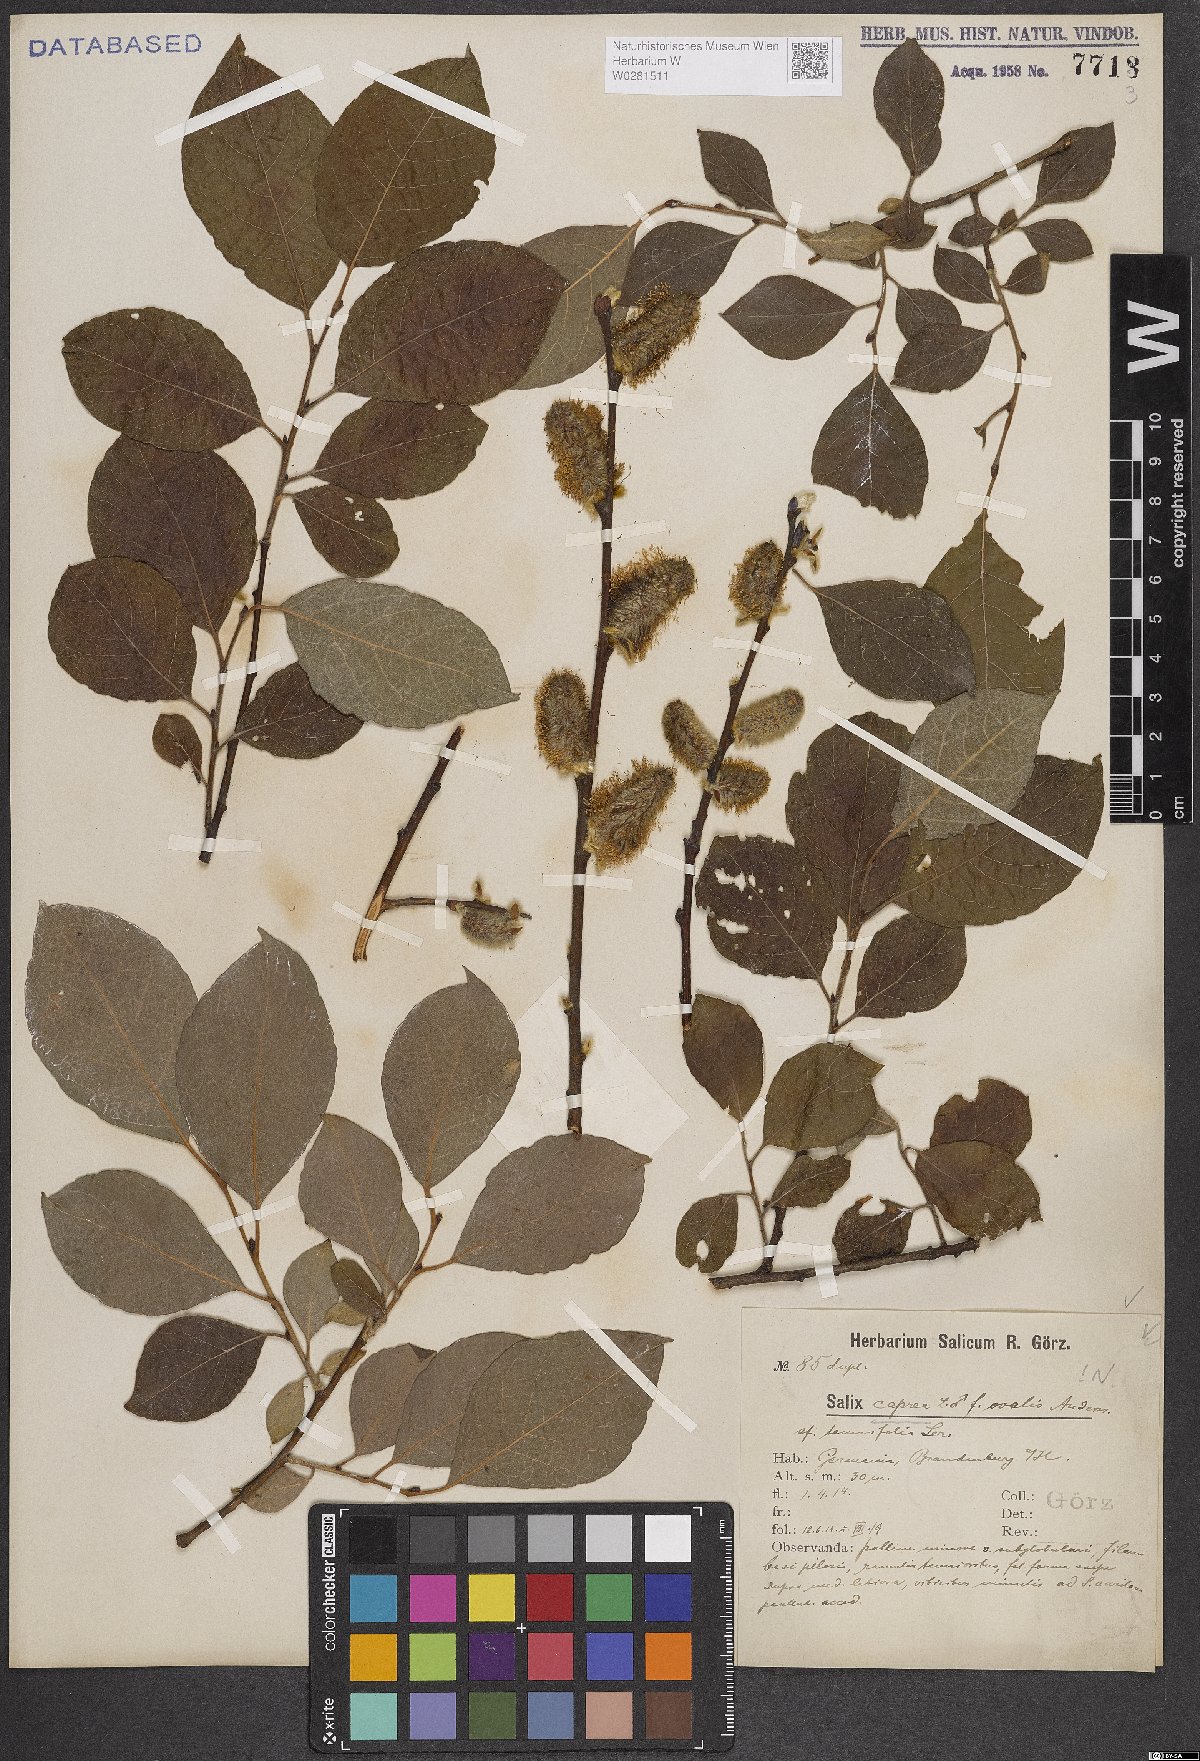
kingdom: Plantae
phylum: Tracheophyta
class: Magnoliopsida
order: Malpighiales
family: Salicaceae
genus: Salix
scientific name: Salix caprea
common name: Goat willow
